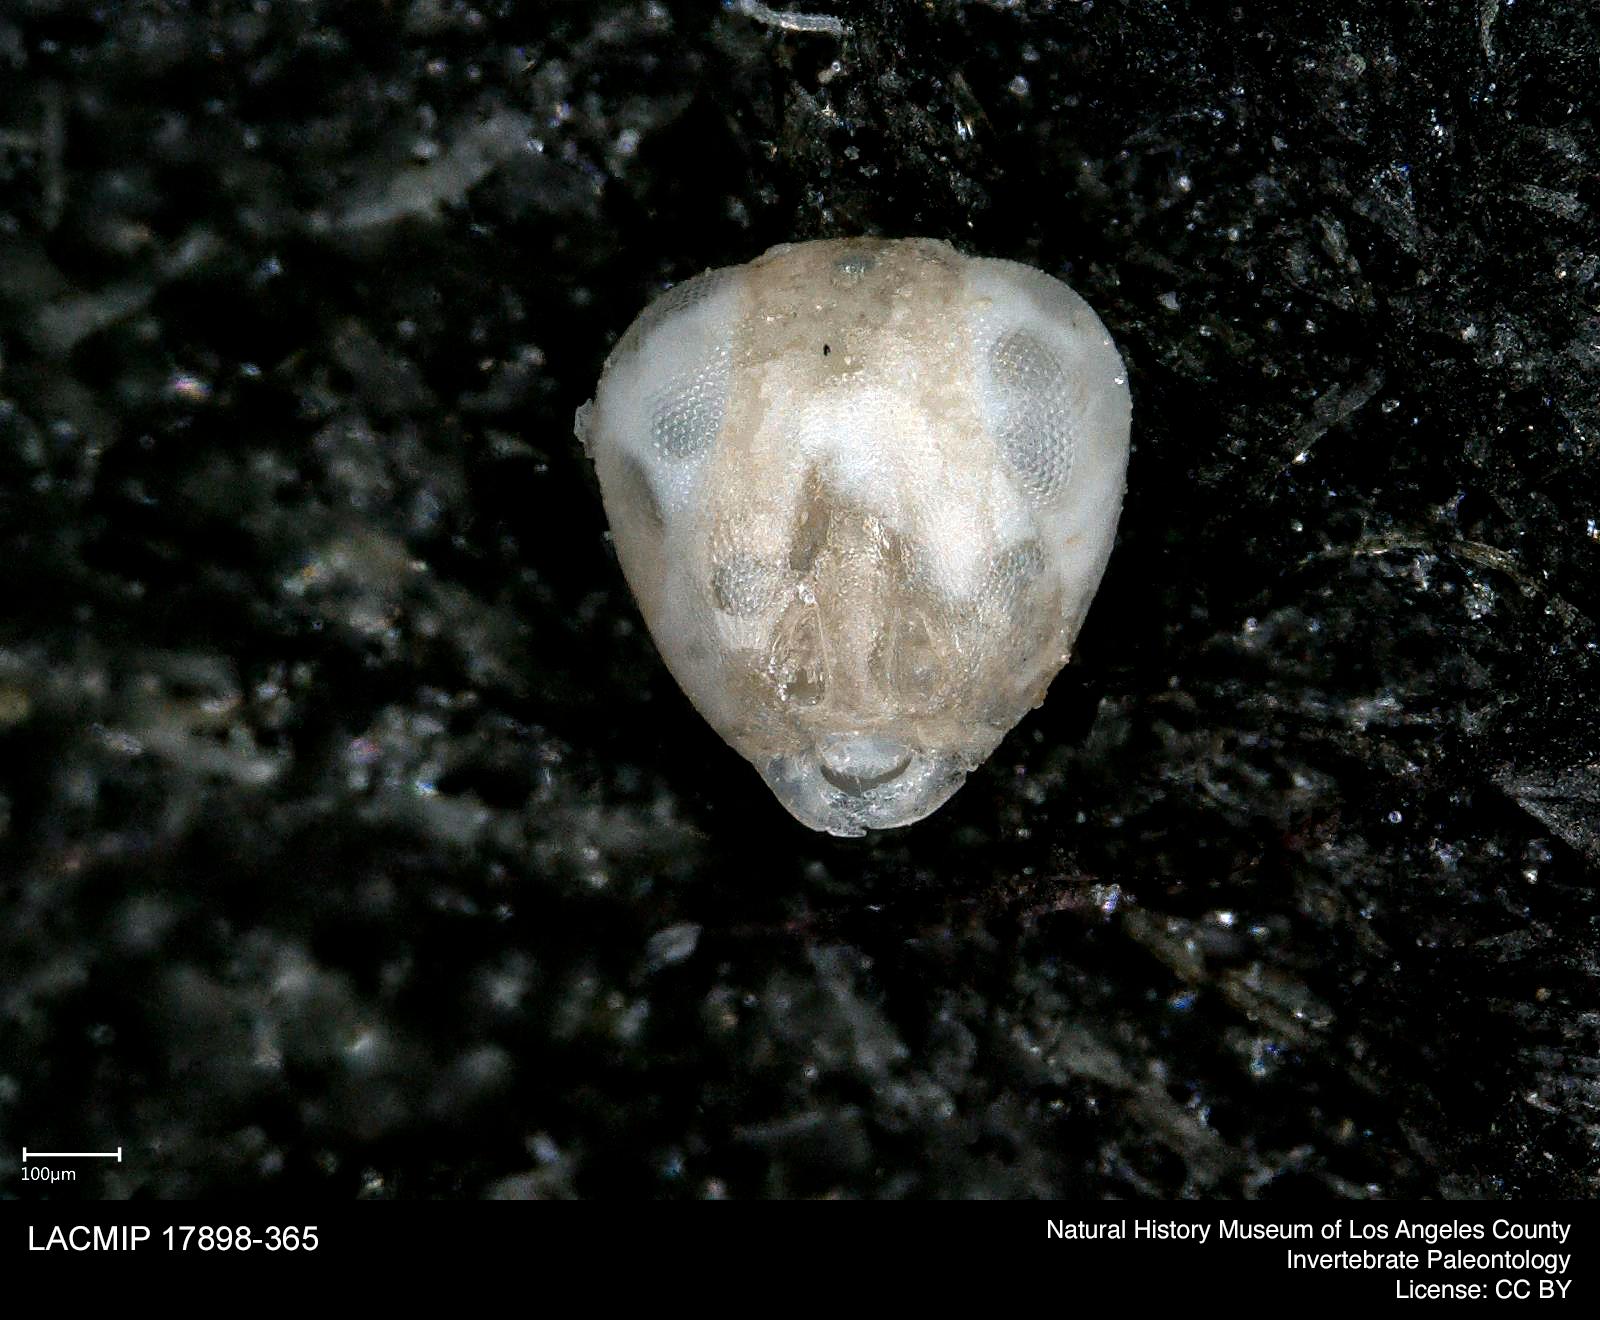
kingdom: Animalia
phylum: Arthropoda
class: Insecta
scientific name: Insecta
